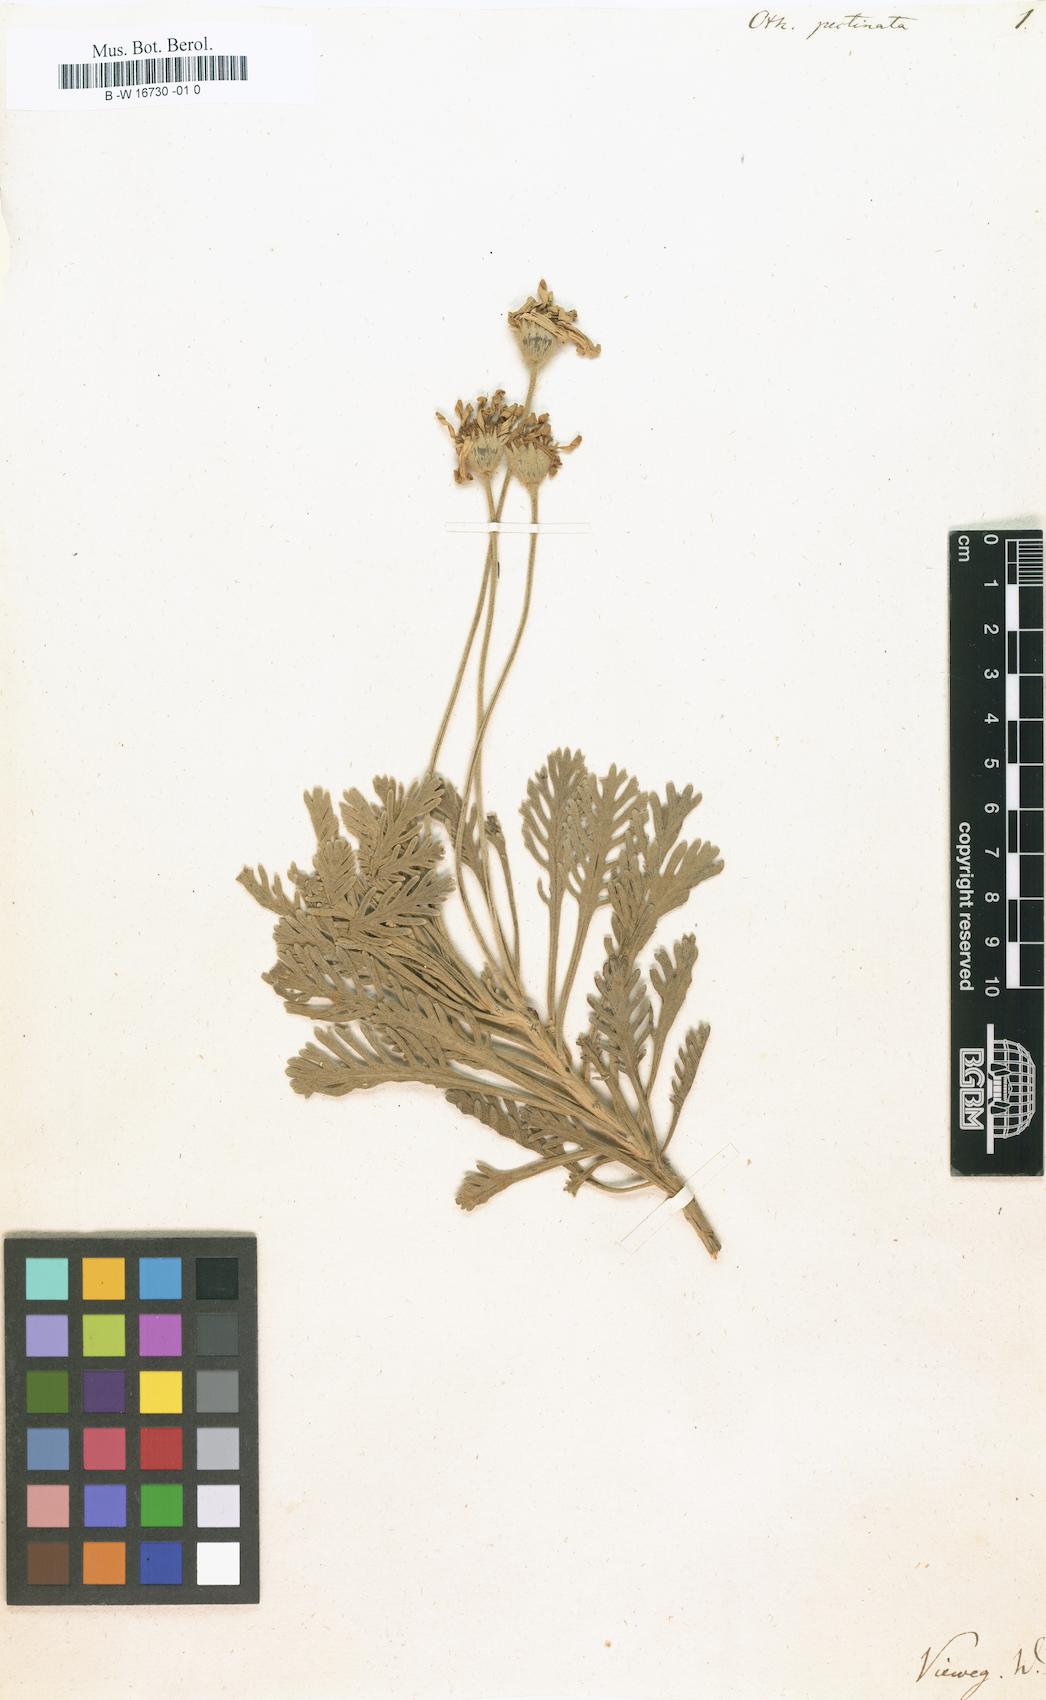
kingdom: Plantae
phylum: Tracheophyta
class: Magnoliopsida
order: Asterales
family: Asteraceae
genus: Euryops
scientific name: Euryops
